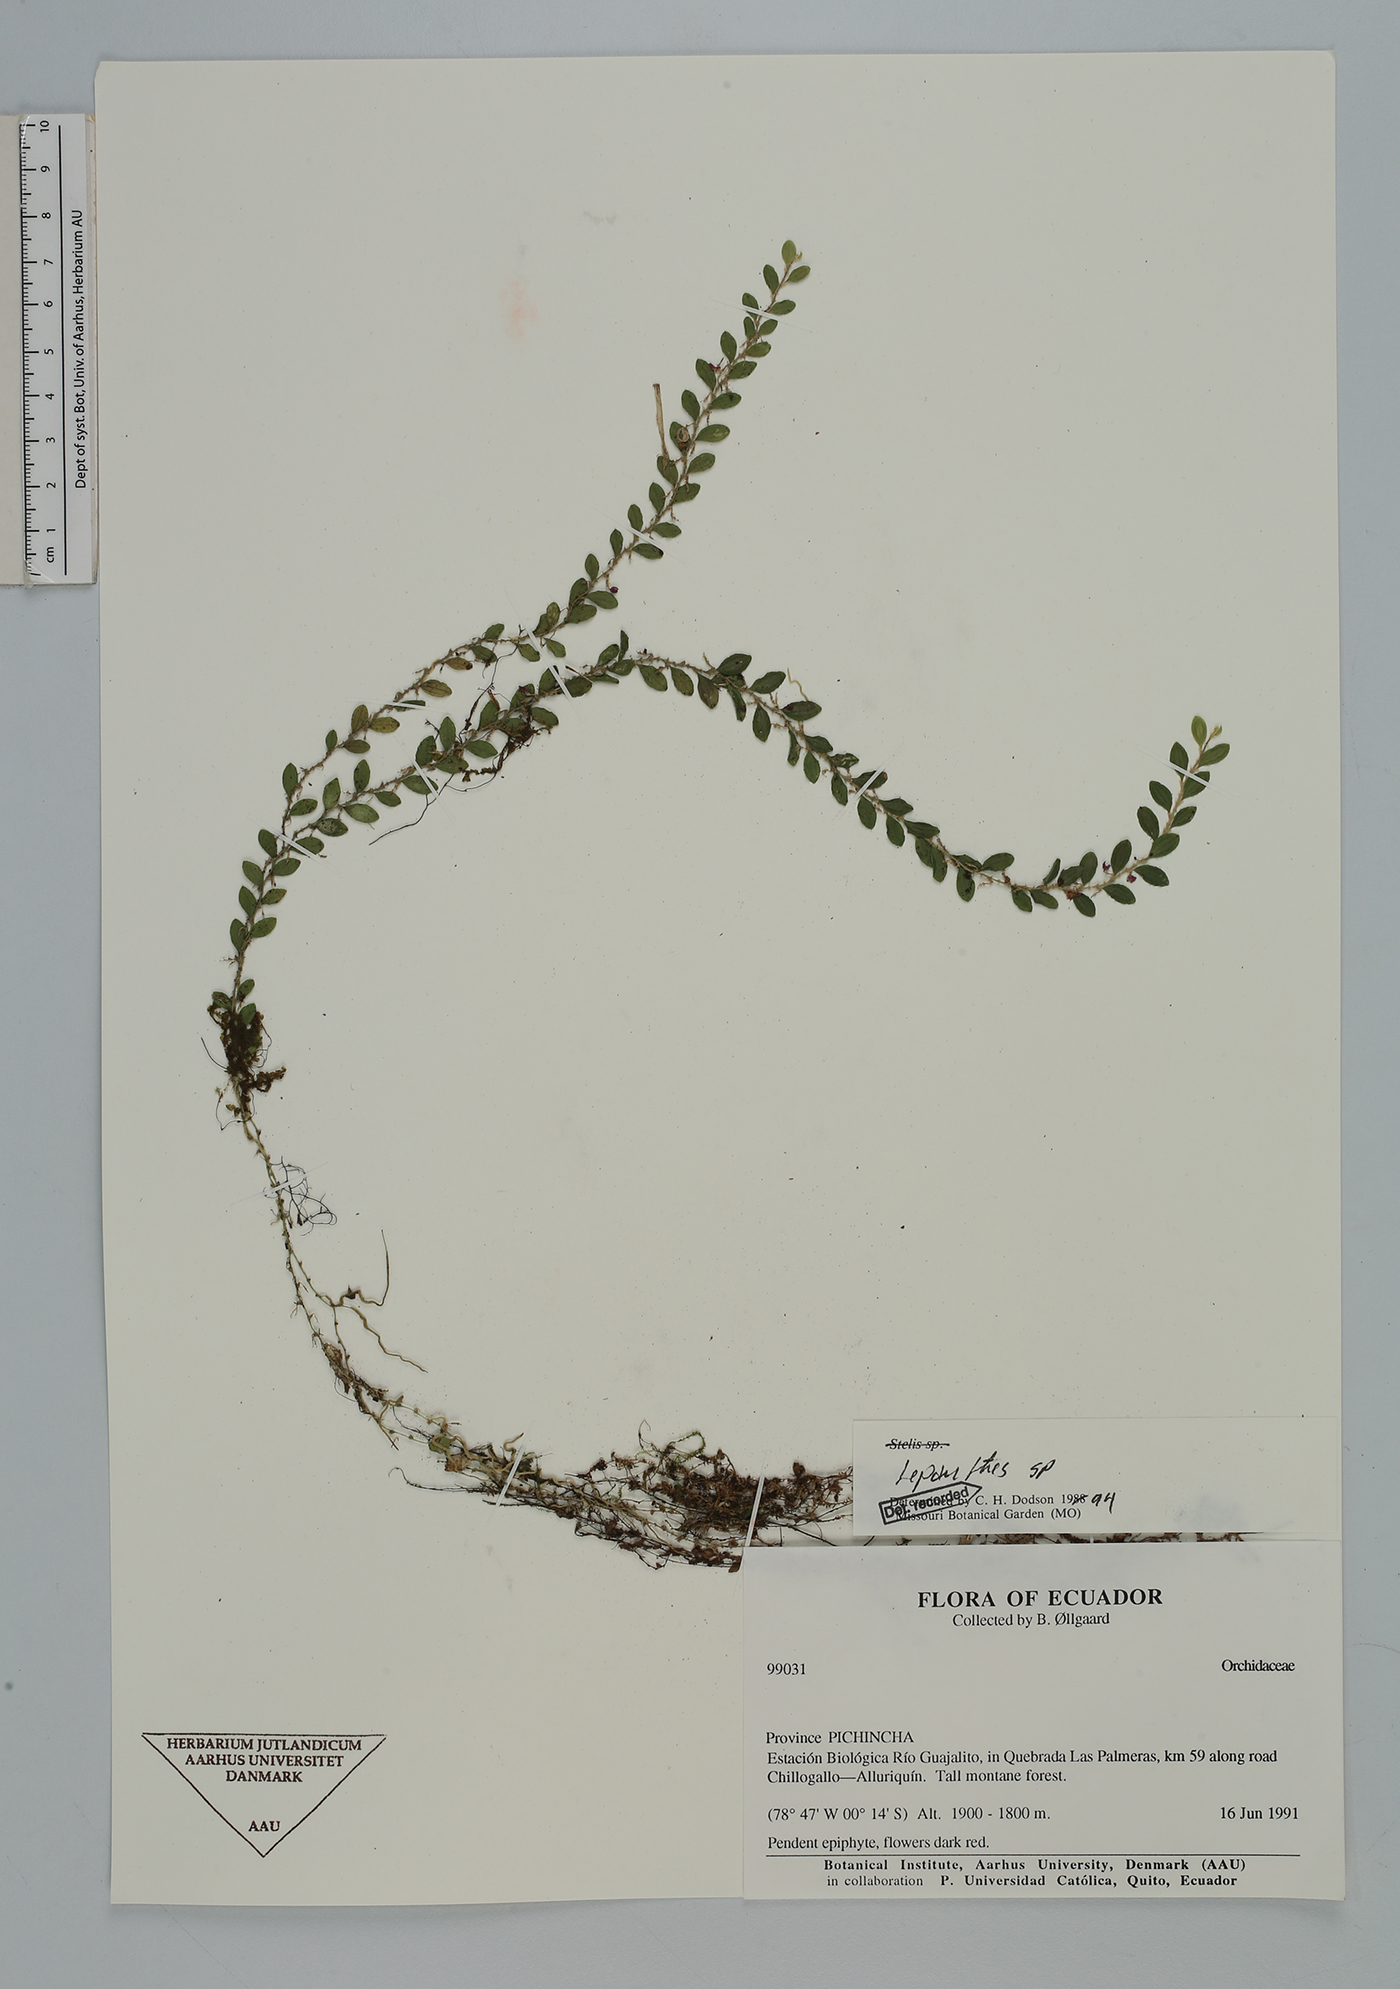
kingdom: Plantae
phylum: Tracheophyta
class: Liliopsida
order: Asparagales
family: Orchidaceae
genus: Lepanthes
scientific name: Lepanthes
